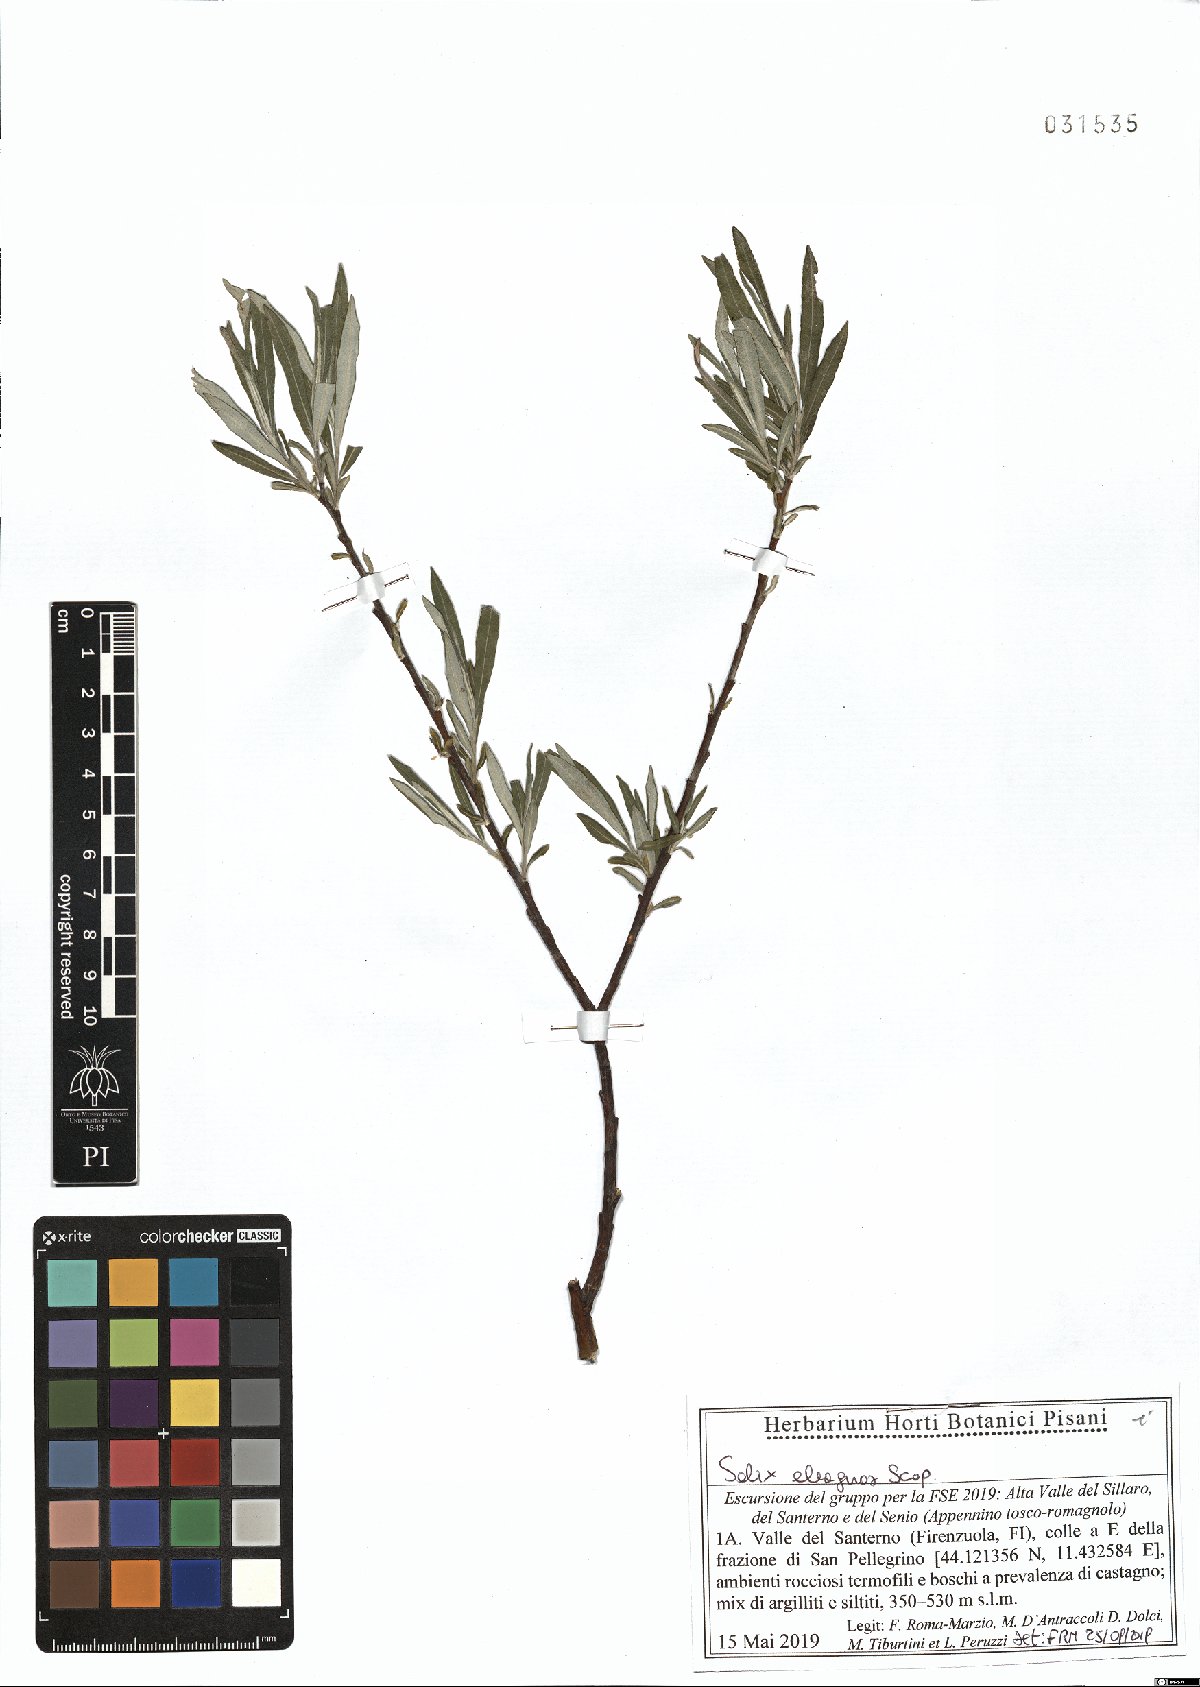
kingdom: Plantae
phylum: Tracheophyta
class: Magnoliopsida
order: Malpighiales
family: Salicaceae
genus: Salix
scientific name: Salix eleagnos
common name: Elaeagnus willow
